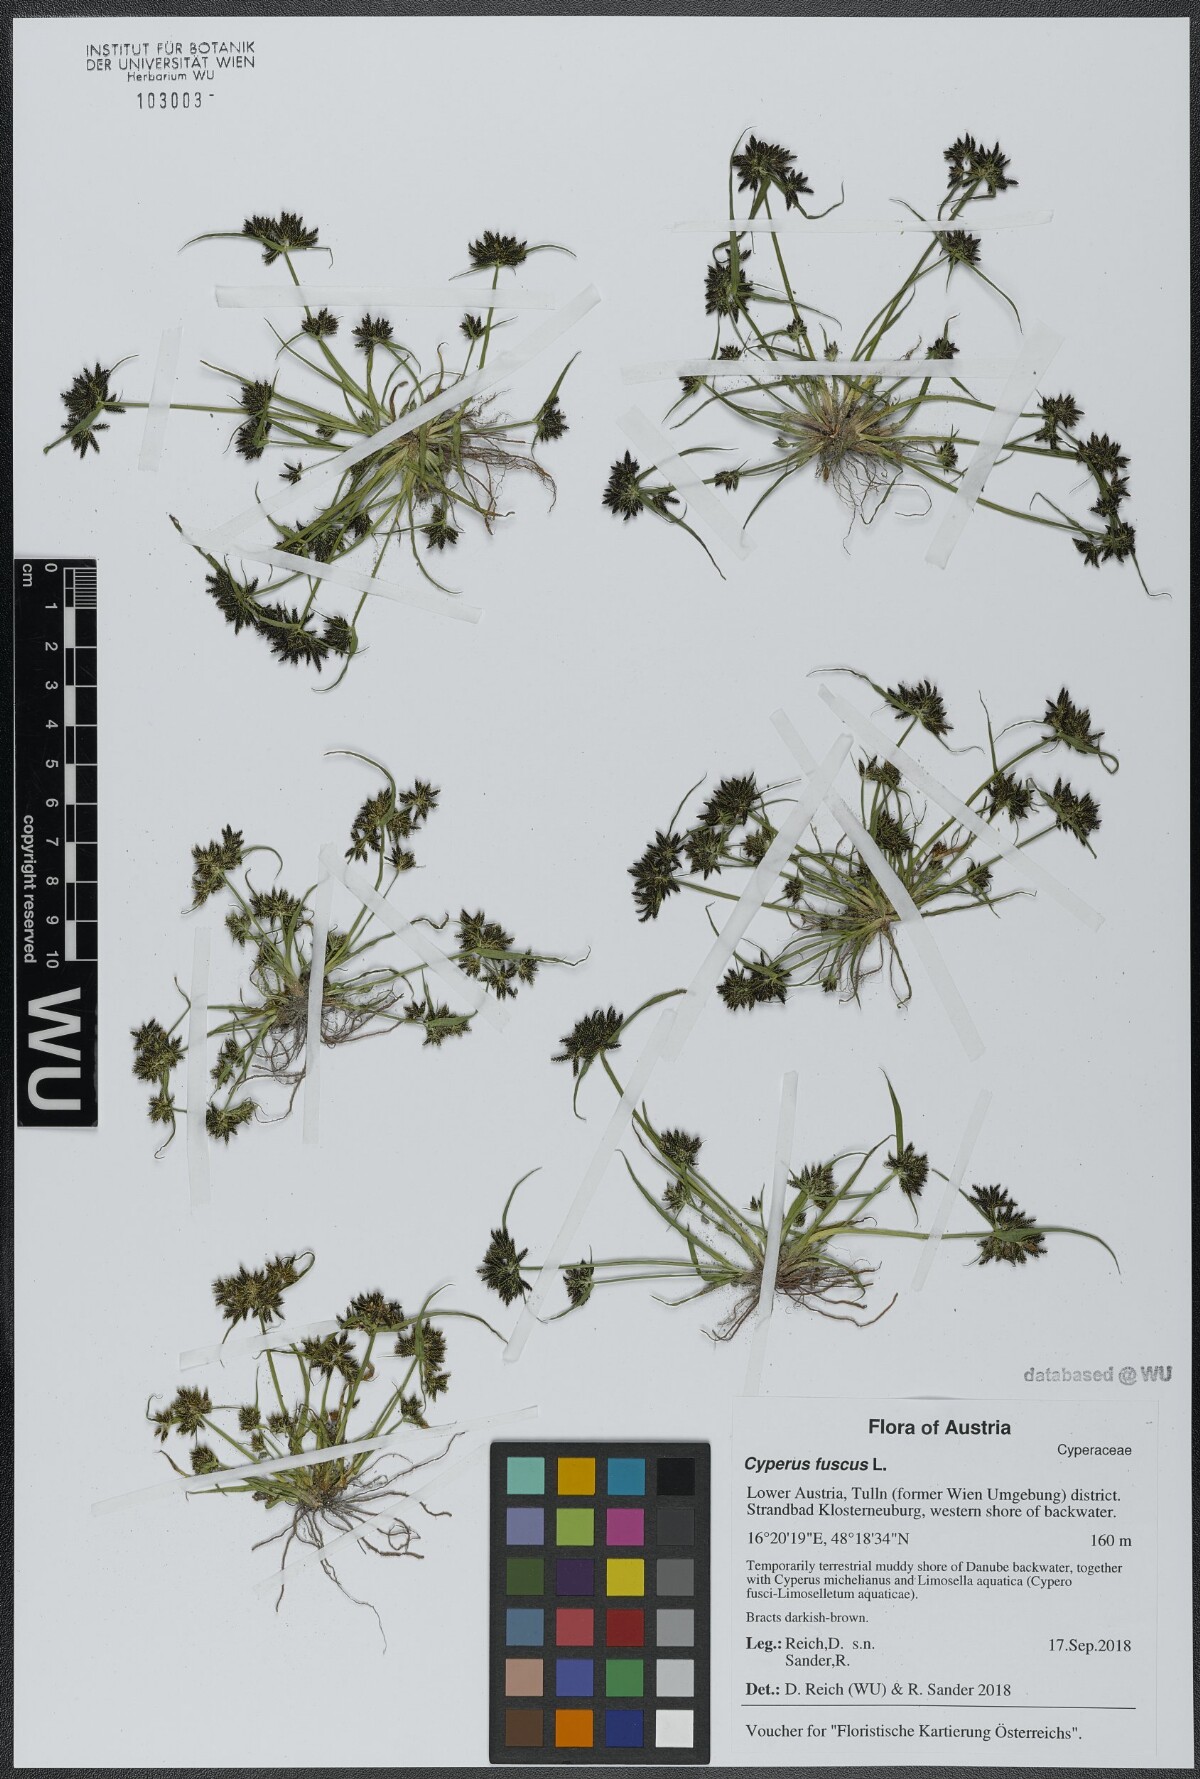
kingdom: Plantae
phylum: Tracheophyta
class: Liliopsida
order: Poales
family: Cyperaceae
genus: Cyperus
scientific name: Cyperus fuscus
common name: Brown galingale
